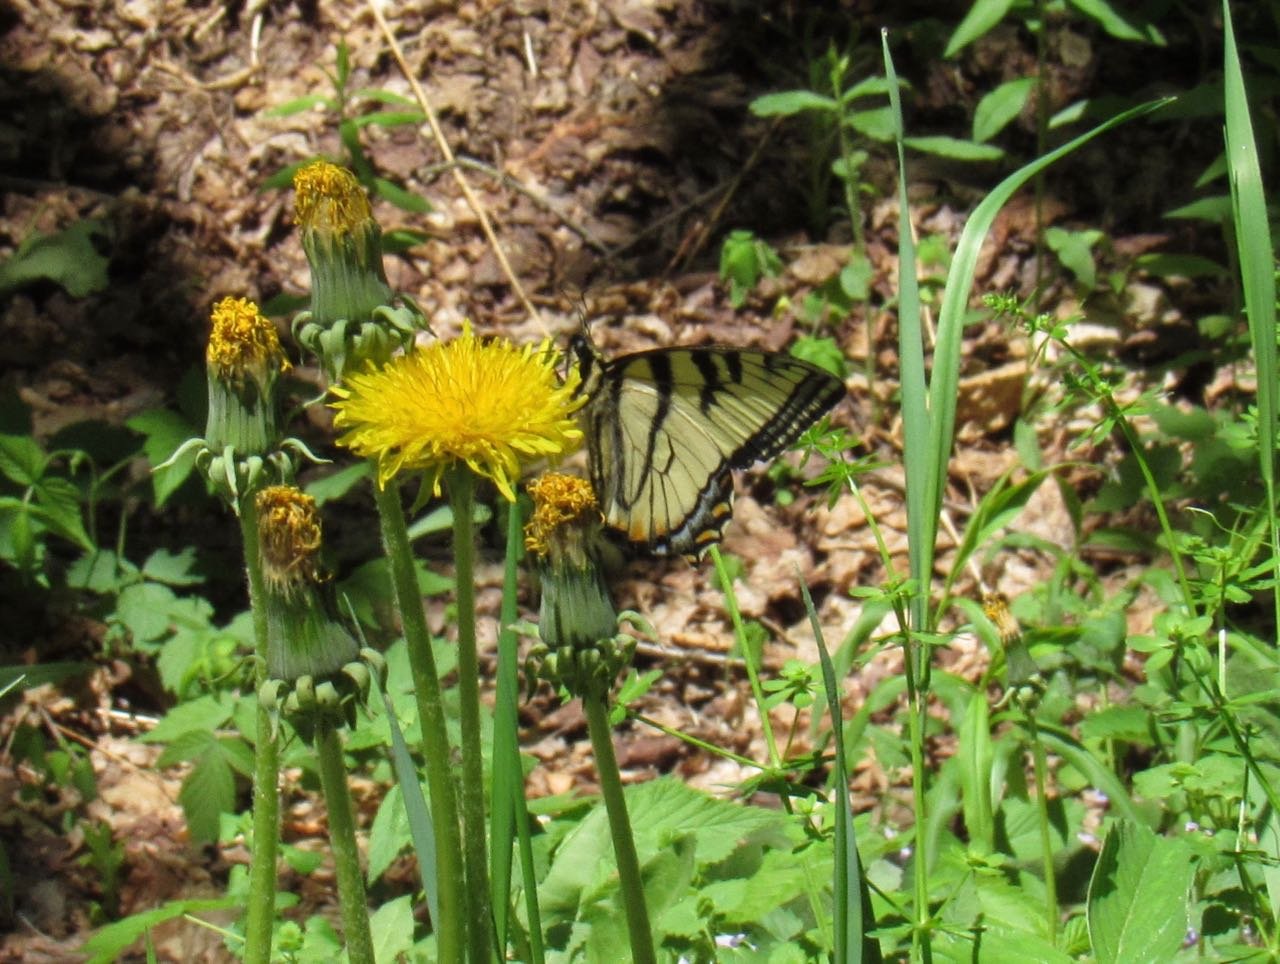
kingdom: Animalia
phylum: Arthropoda
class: Insecta
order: Lepidoptera
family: Papilionidae
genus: Pterourus
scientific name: Pterourus canadensis
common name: Canadian Tiger Swallowtail
